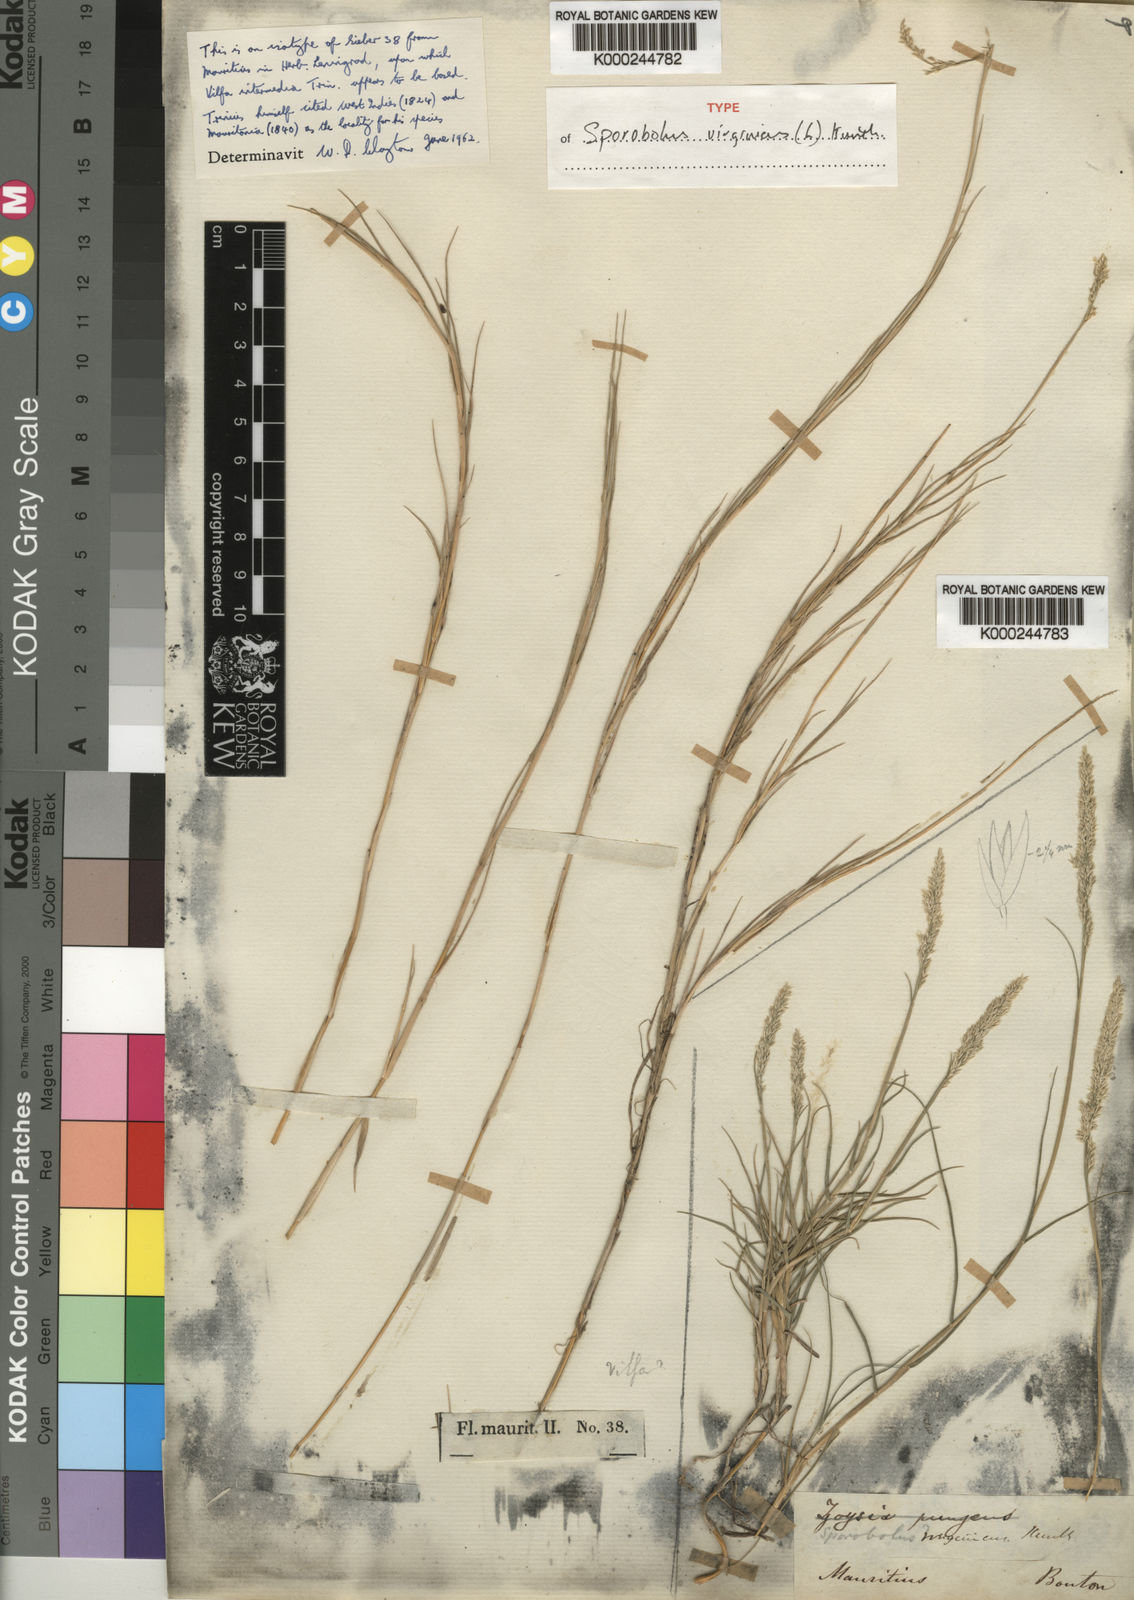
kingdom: Plantae
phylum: Tracheophyta
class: Liliopsida
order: Poales
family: Poaceae
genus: Sporobolus
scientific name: Sporobolus virginicus
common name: Beach dropseed
